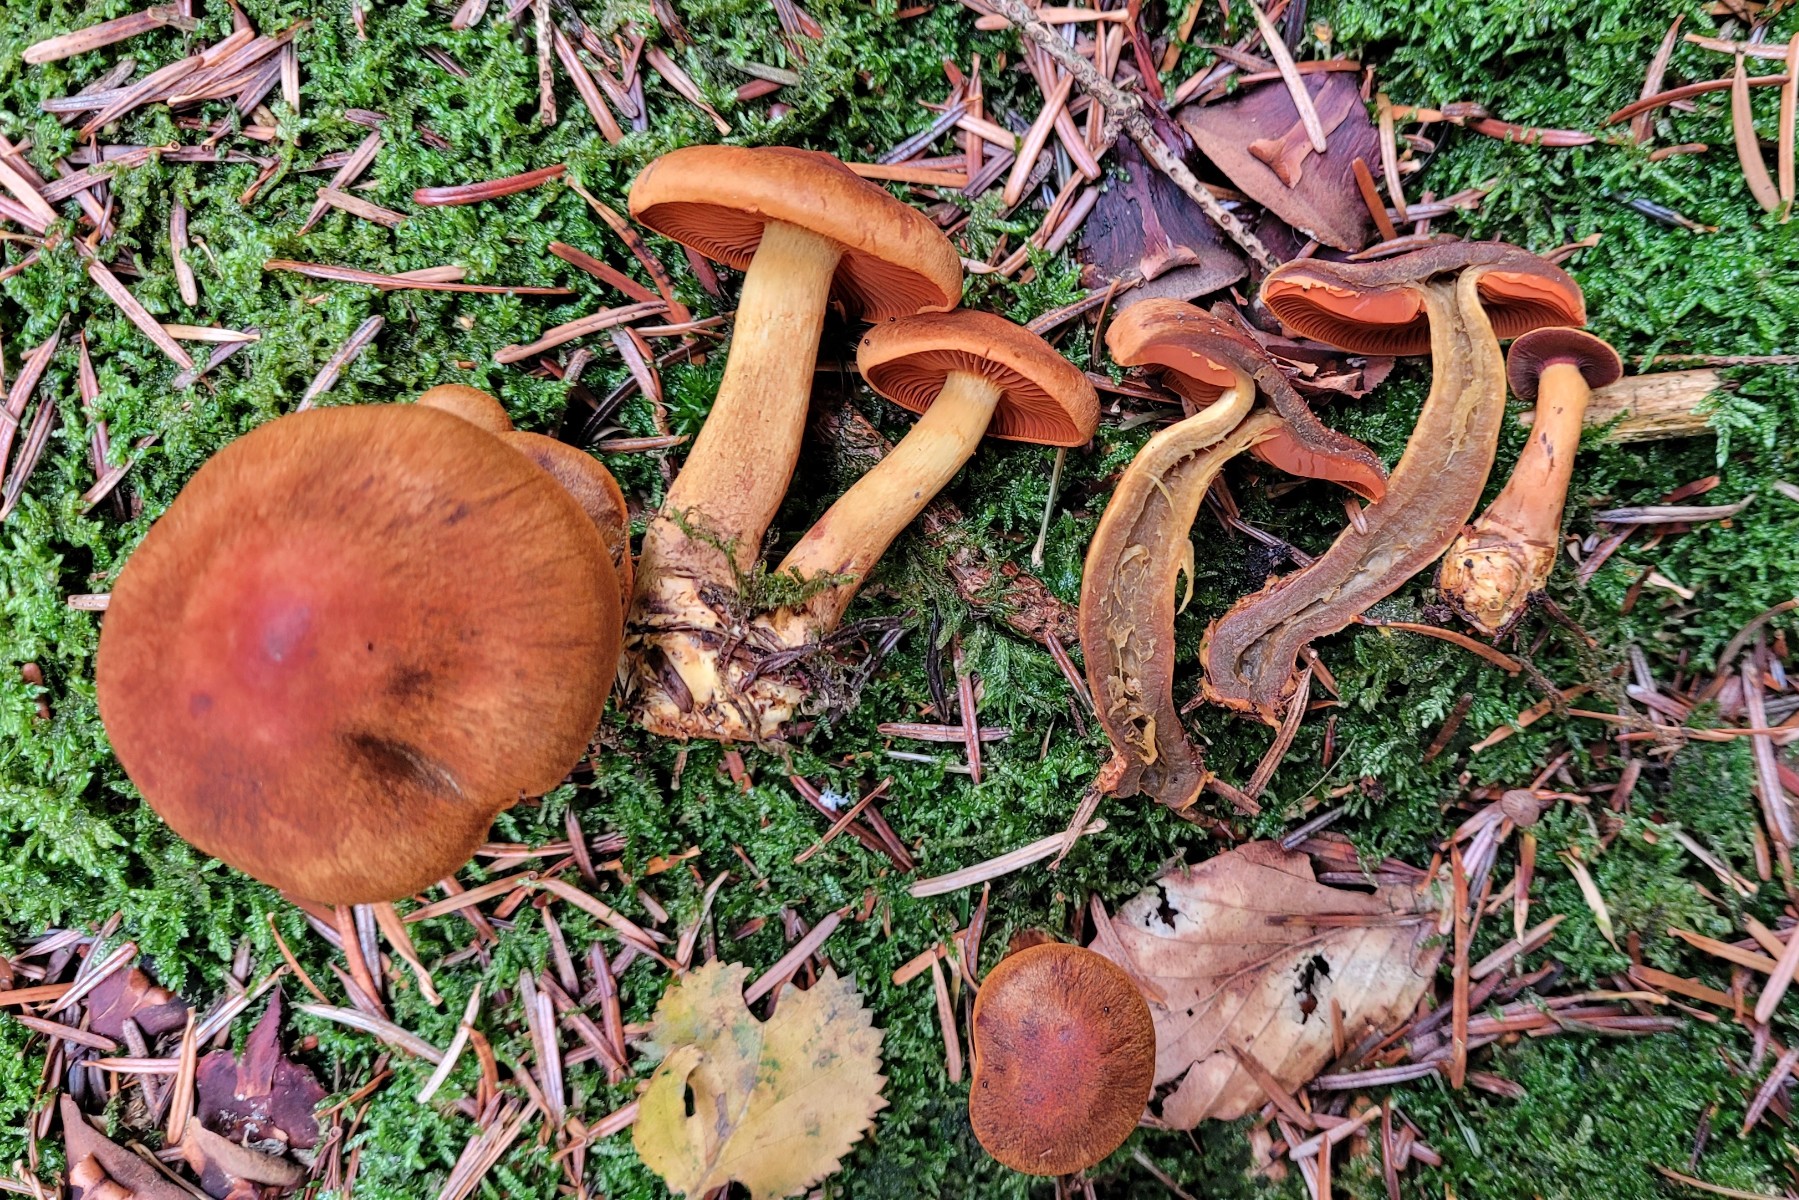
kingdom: Fungi
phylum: Basidiomycota
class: Agaricomycetes
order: Agaricales
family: Cortinariaceae
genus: Cortinarius
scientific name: Cortinarius malicorius
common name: grønkødet slørhat
